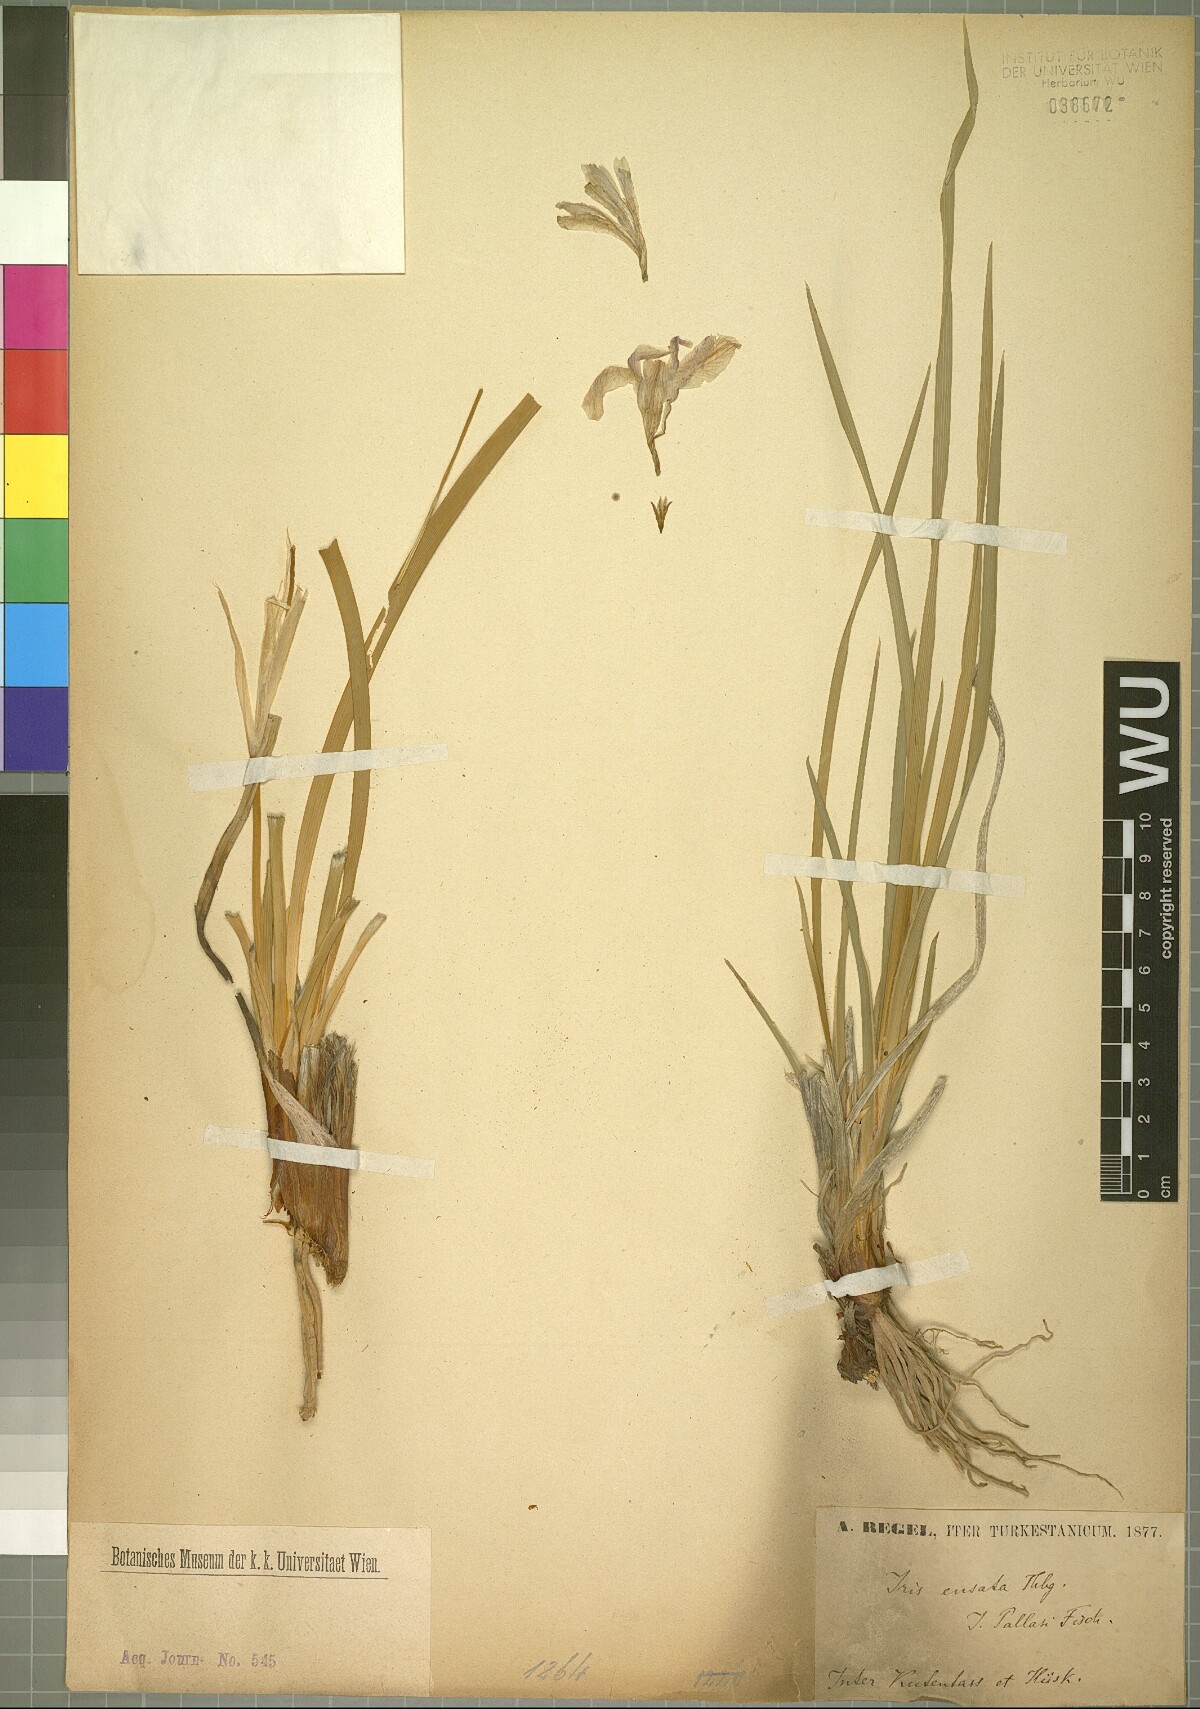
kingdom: Plantae
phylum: Tracheophyta
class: Liliopsida
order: Asparagales
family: Iridaceae
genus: Iris
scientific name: Iris ensata
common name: Beaked iris
